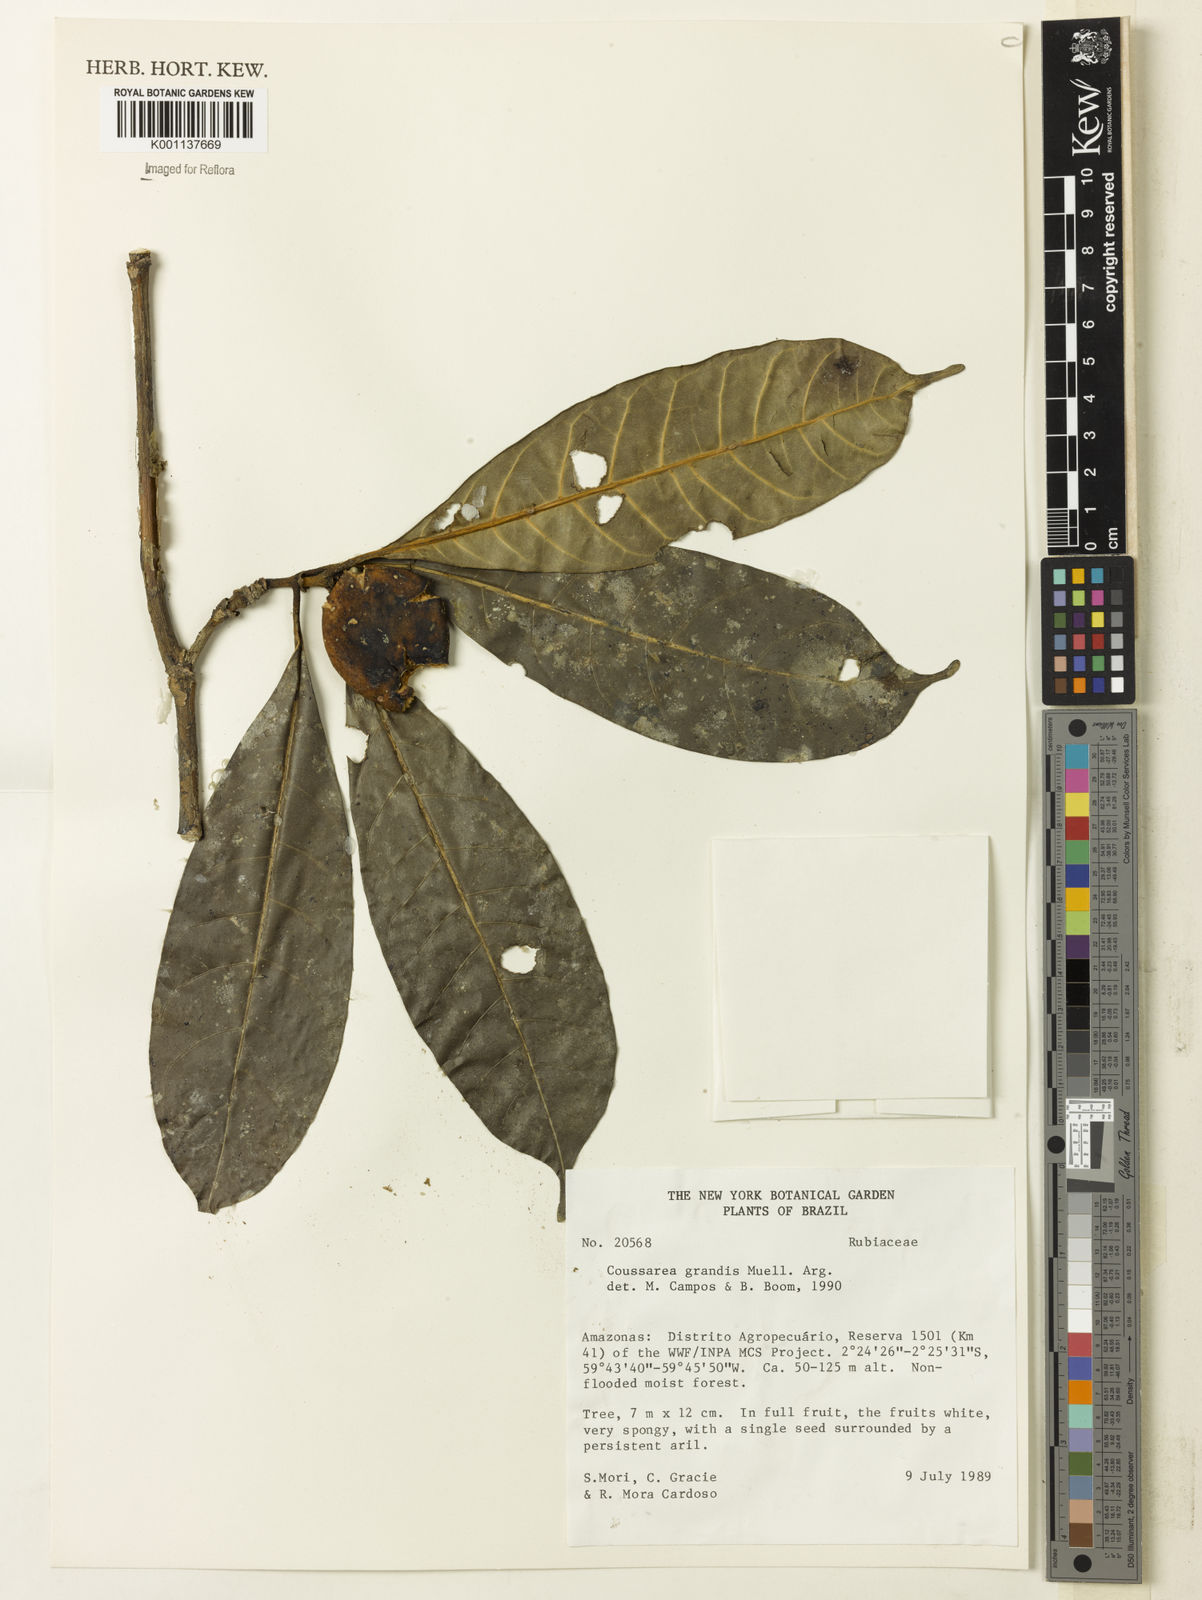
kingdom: Plantae
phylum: Tracheophyta
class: Magnoliopsida
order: Gentianales
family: Rubiaceae
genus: Coussarea
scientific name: Coussarea
